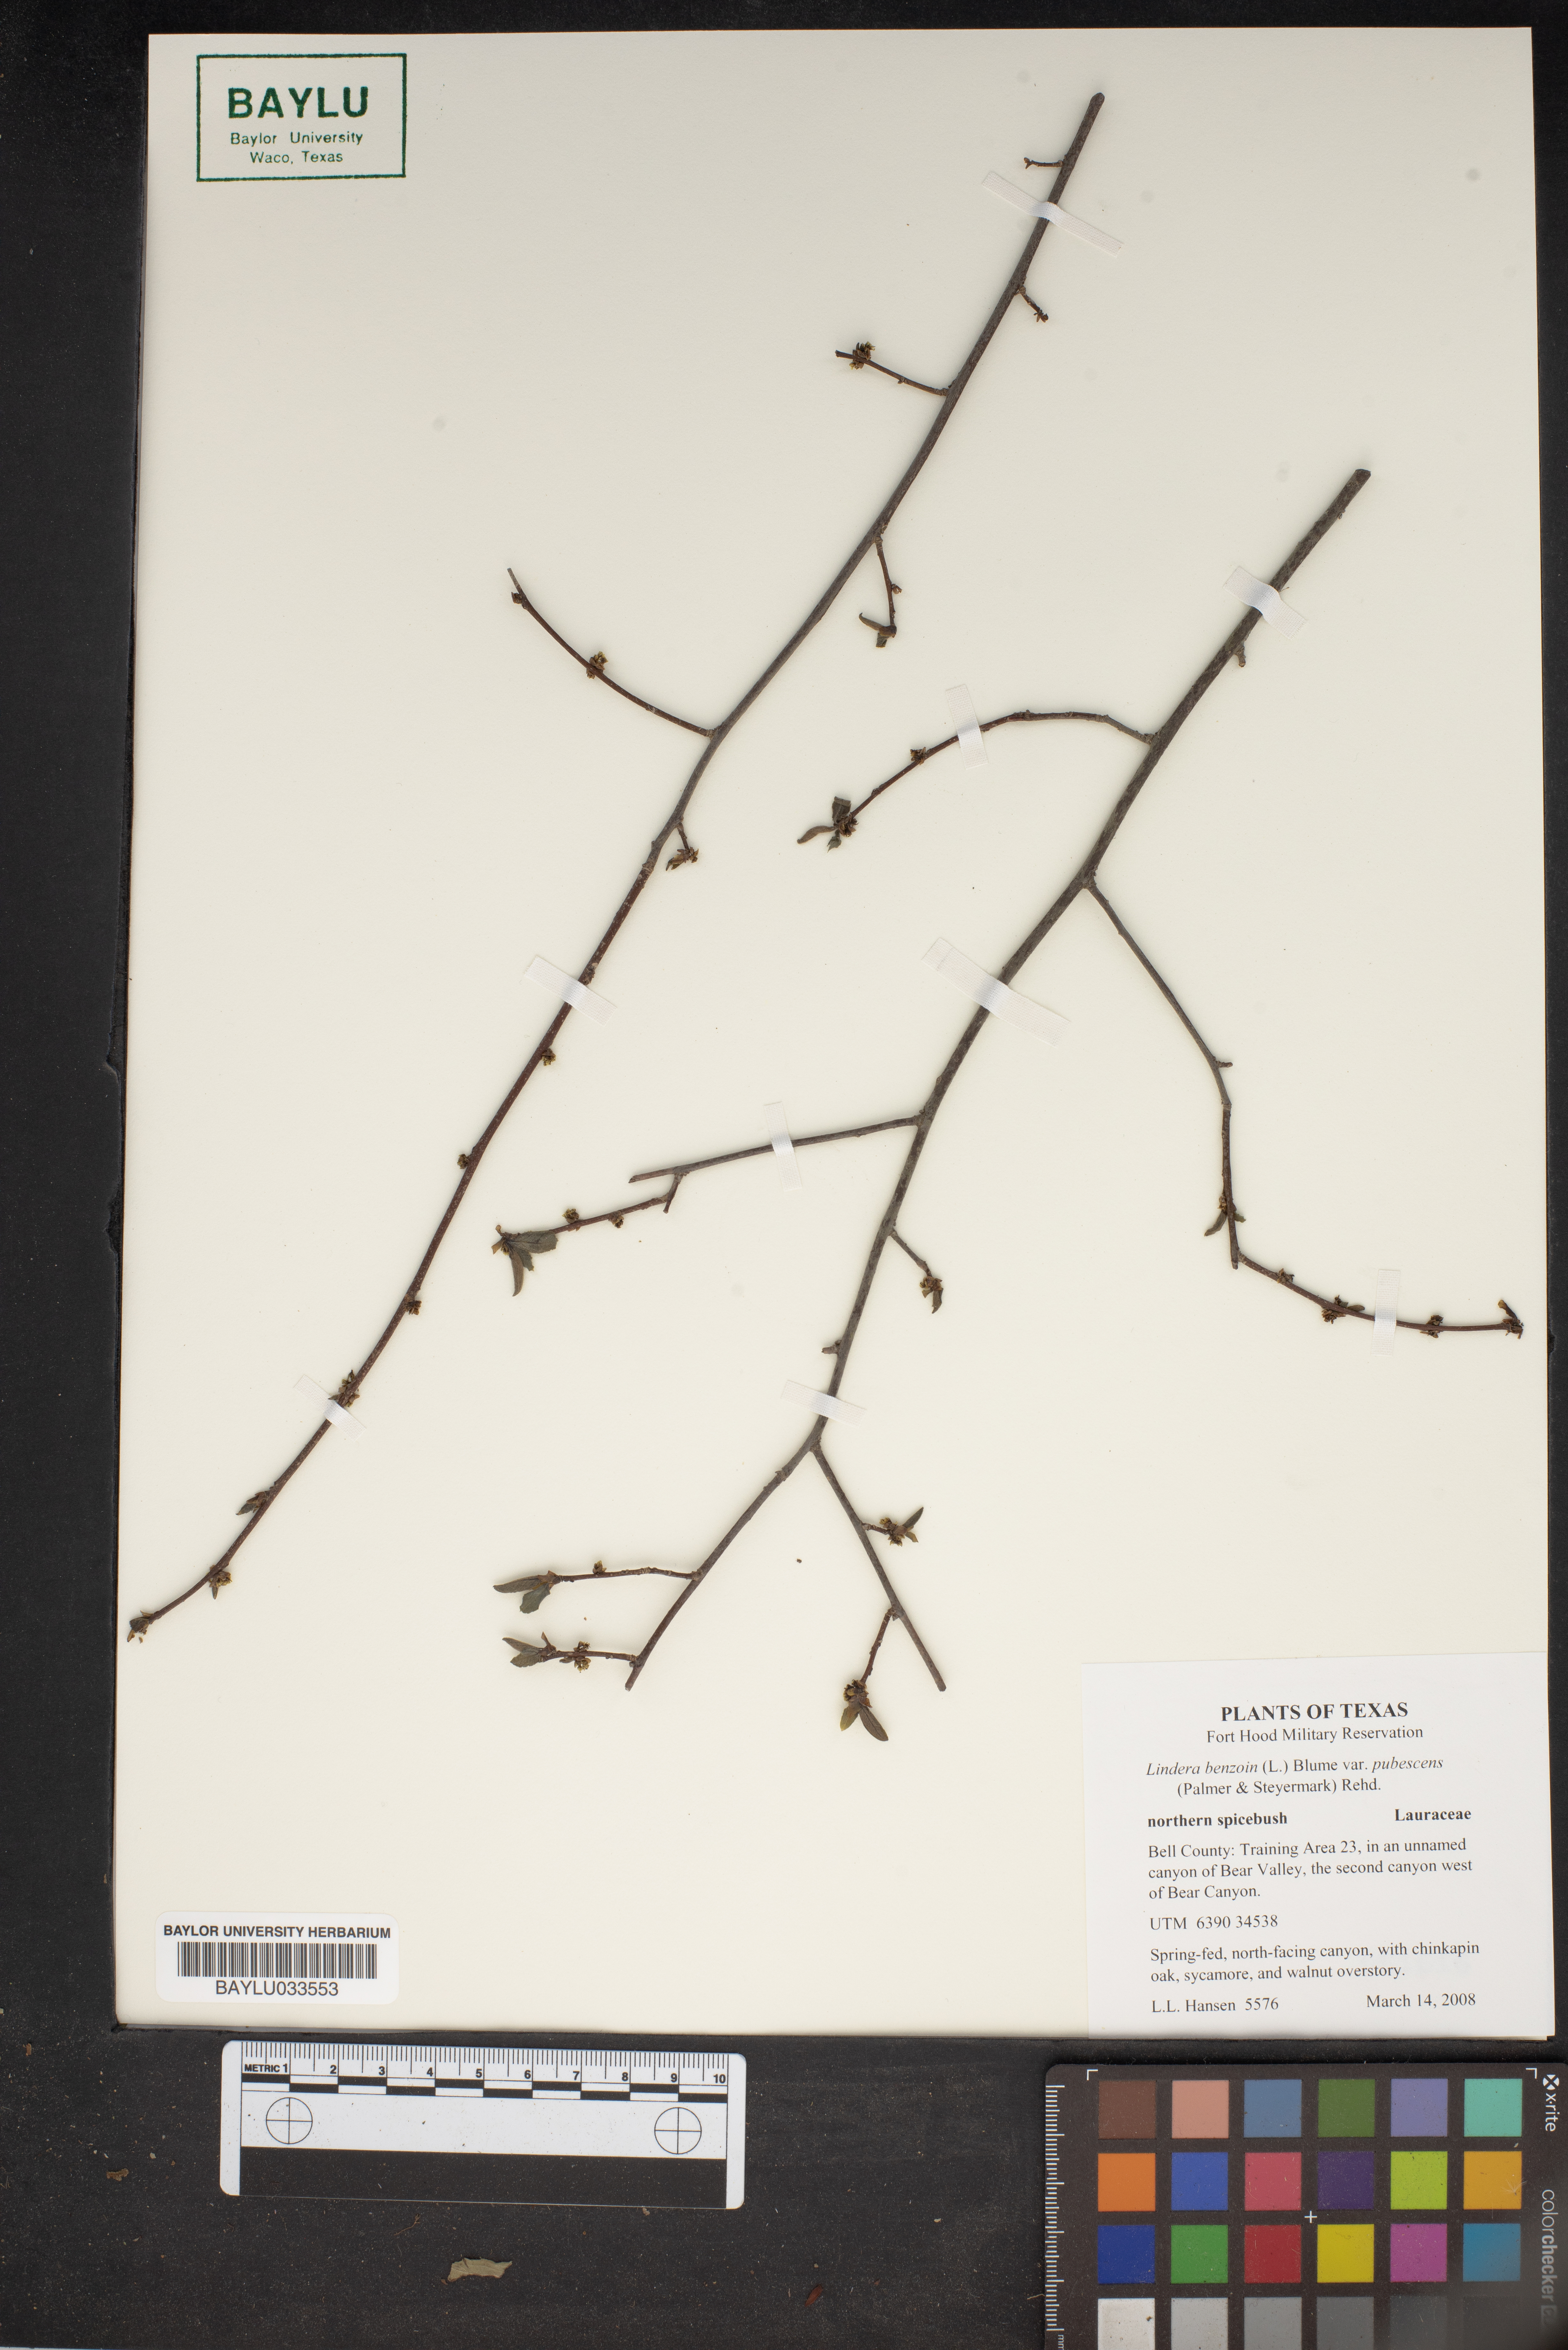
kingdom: Plantae
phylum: Tracheophyta
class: Magnoliopsida
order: Laurales
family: Lauraceae
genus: Lindera
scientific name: Lindera benzoin
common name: Spicebush
